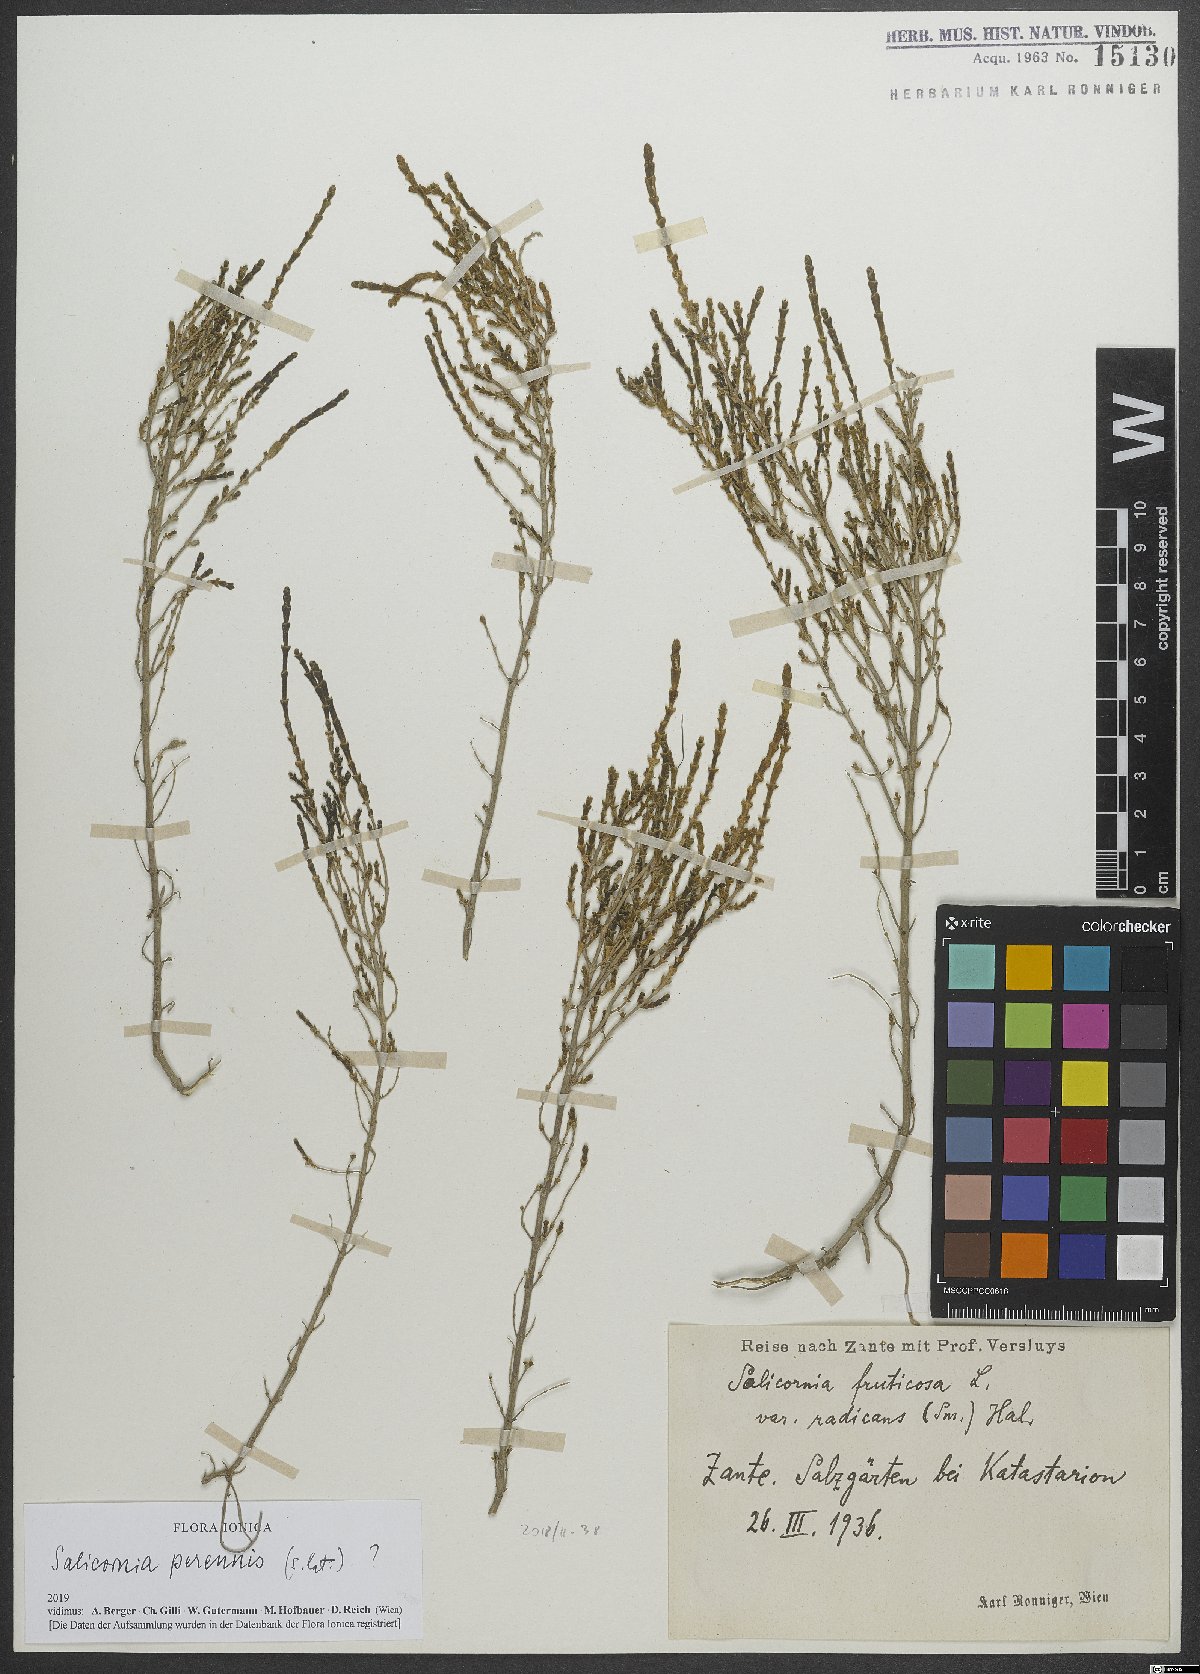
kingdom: Plantae
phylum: Tracheophyta
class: Magnoliopsida
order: Caryophyllales
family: Amaranthaceae
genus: Salicornia
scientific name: Salicornia perennis
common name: Chicken claws
